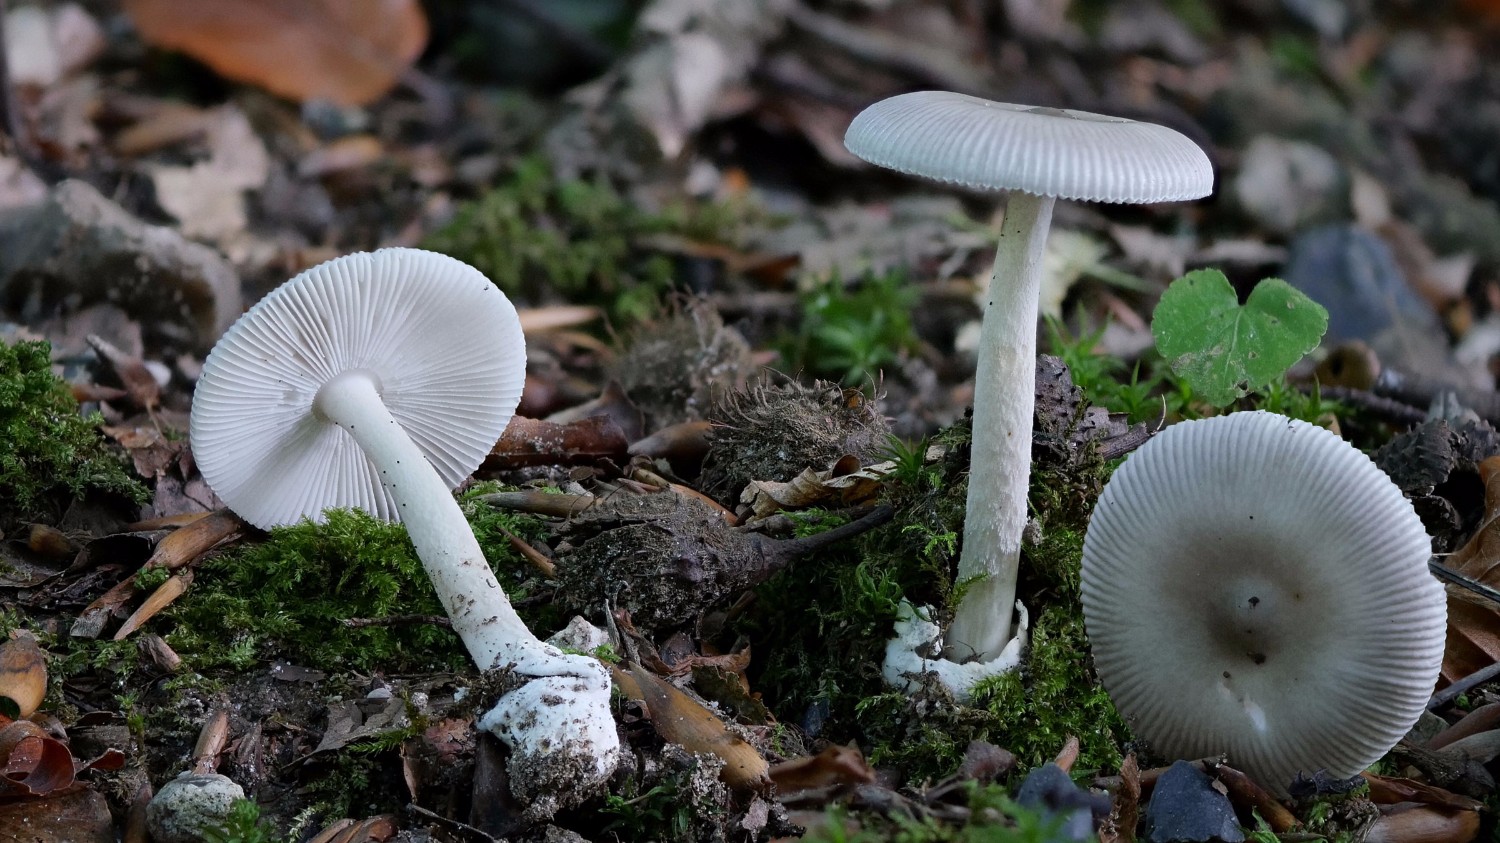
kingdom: Fungi
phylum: Basidiomycota
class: Agaricomycetes
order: Agaricales
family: Amanitaceae
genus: Amanita
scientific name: Amanita vaginata
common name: grå kam-fluesvamp
